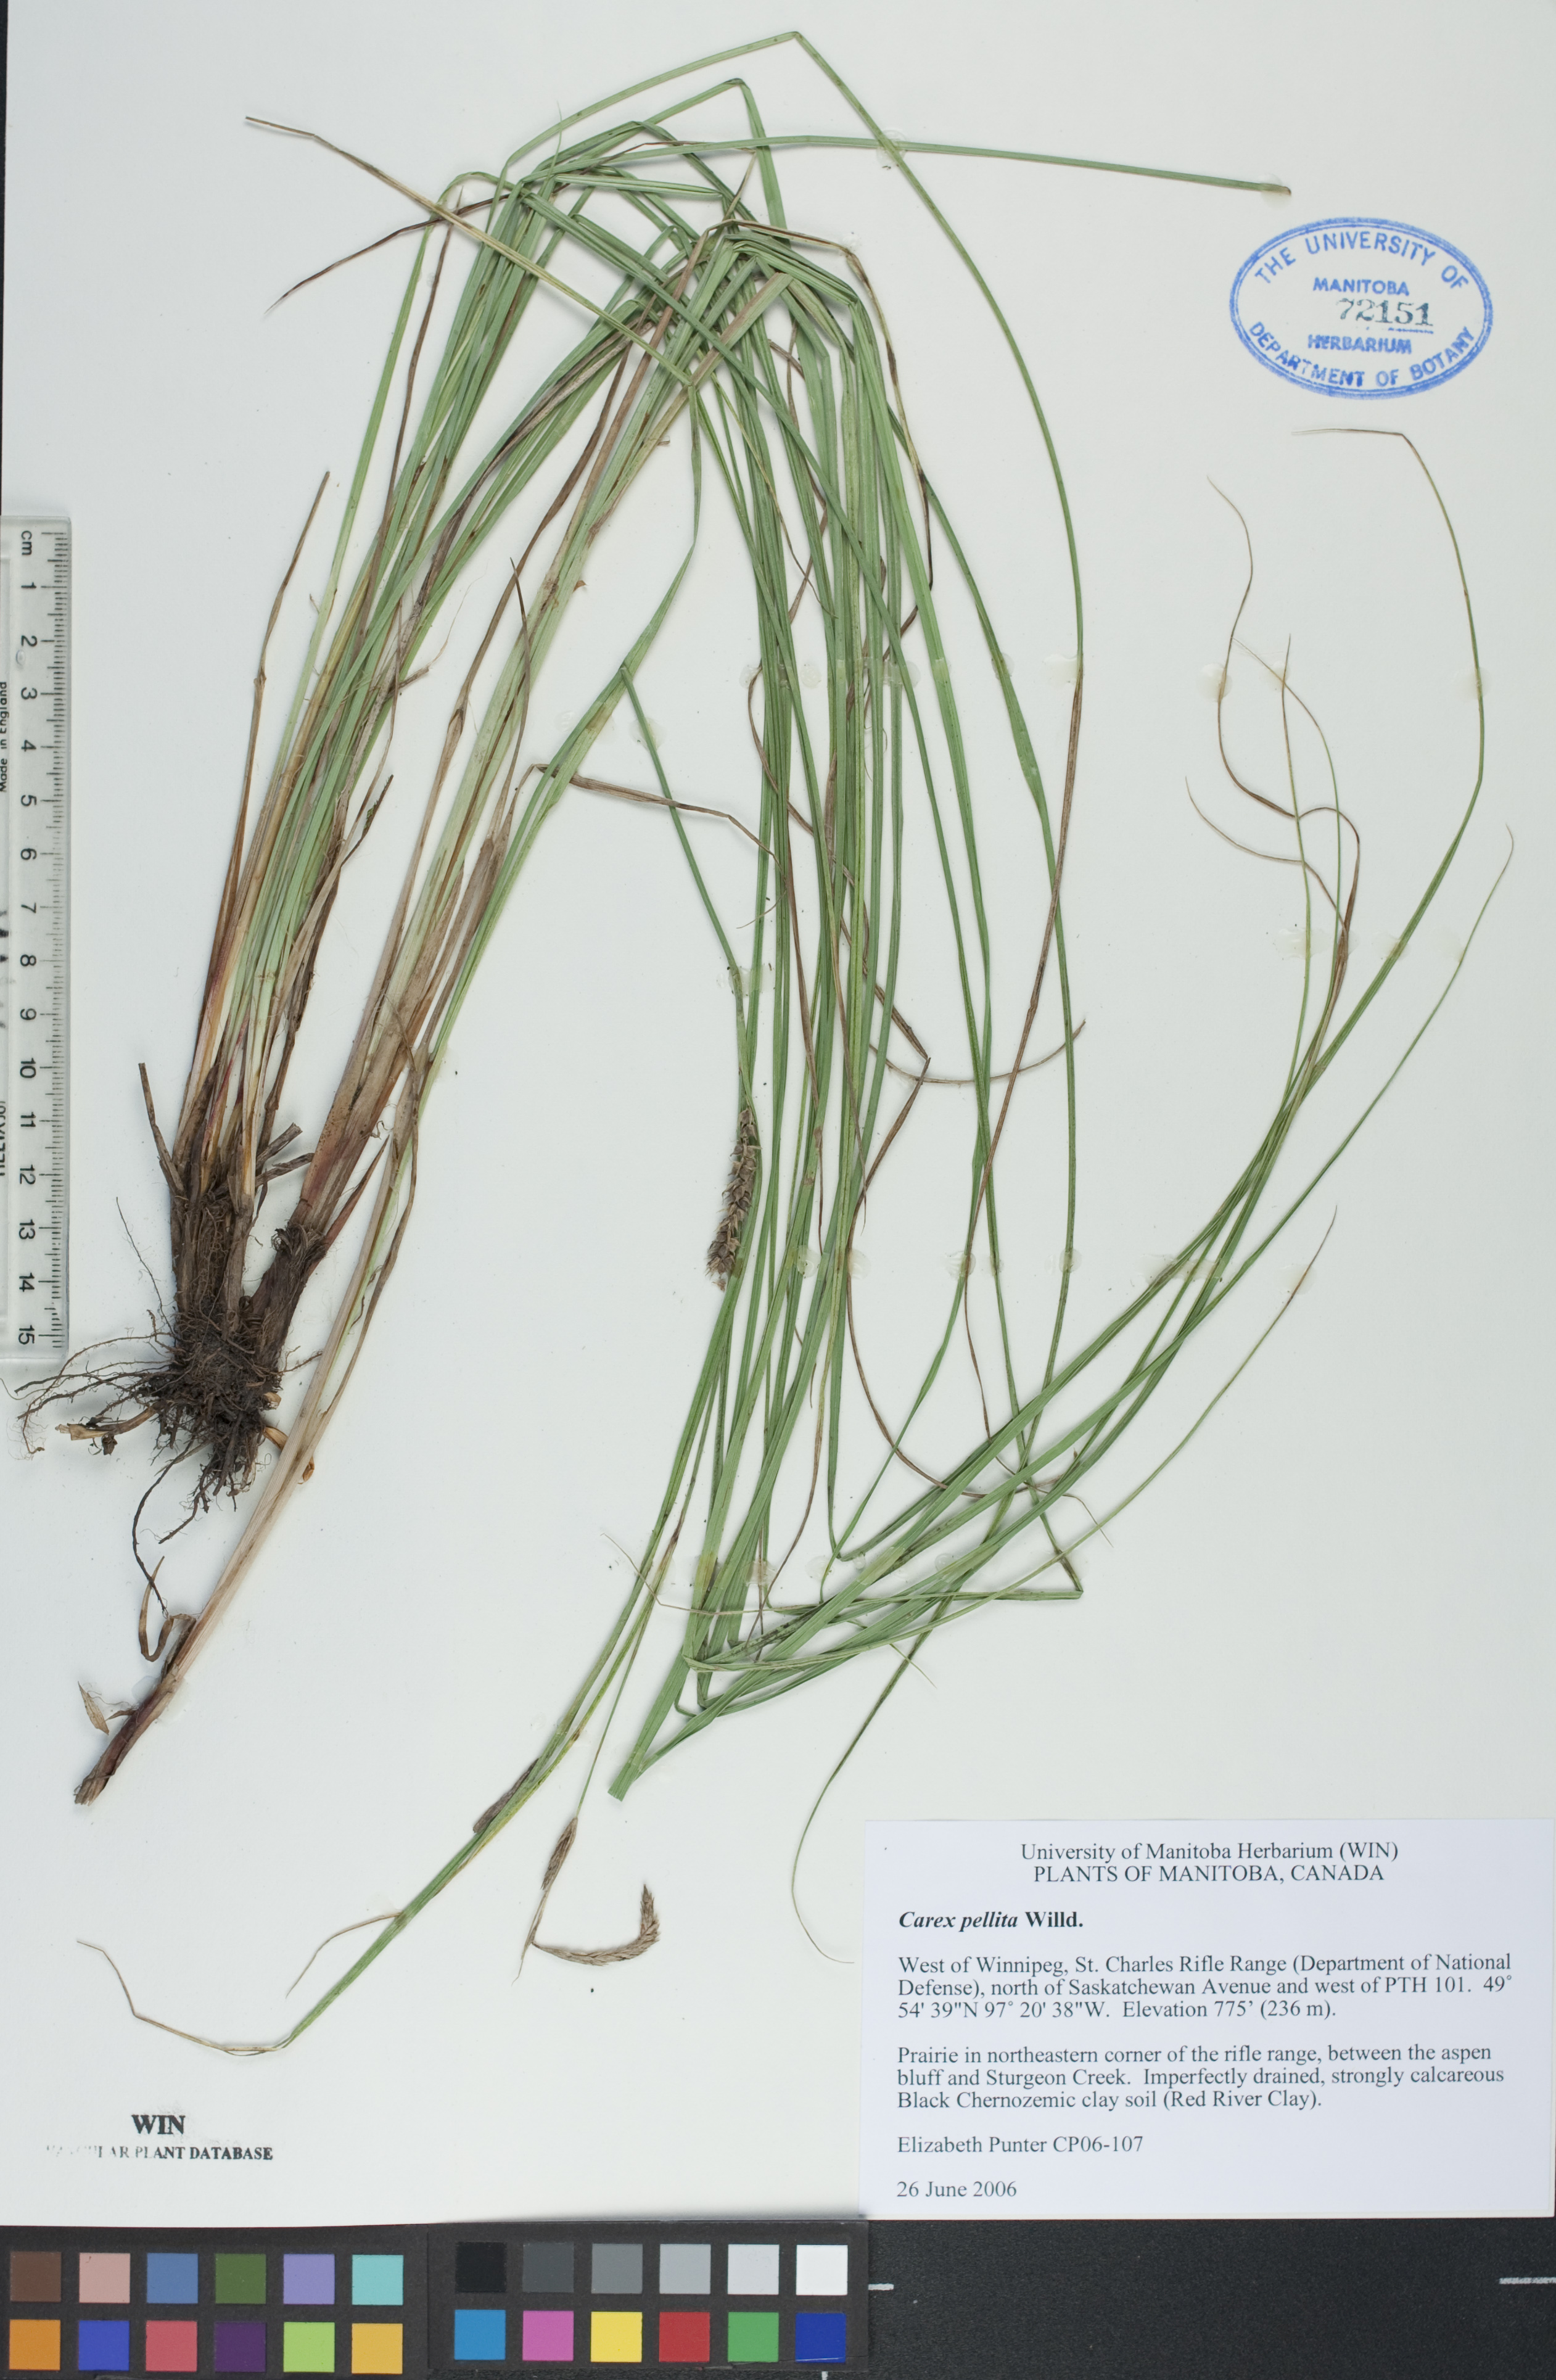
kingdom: Plantae
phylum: Tracheophyta
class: Liliopsida
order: Poales
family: Cyperaceae
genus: Carex
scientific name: Carex pellita
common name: Woolly sedge
